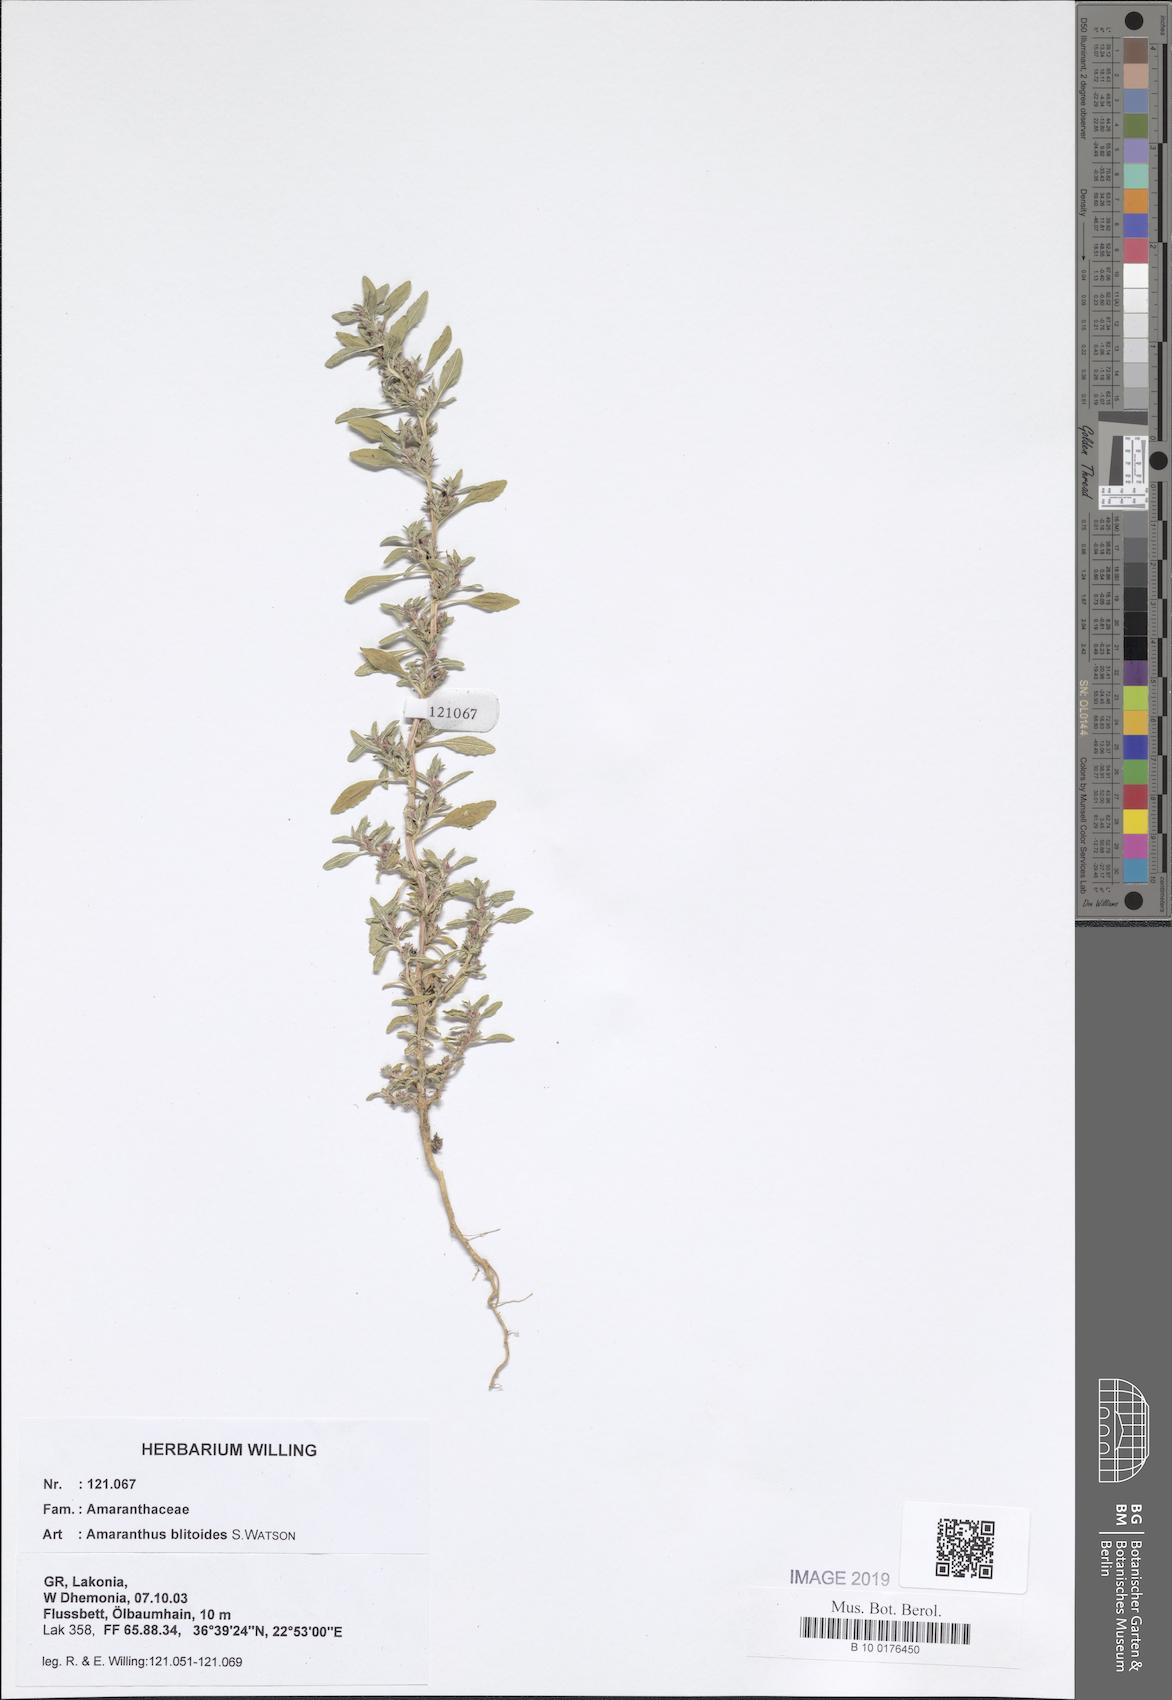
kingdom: Plantae
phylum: Tracheophyta
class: Magnoliopsida
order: Caryophyllales
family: Amaranthaceae
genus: Amaranthus
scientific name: Amaranthus blitoides
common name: Prostrate pigweed
